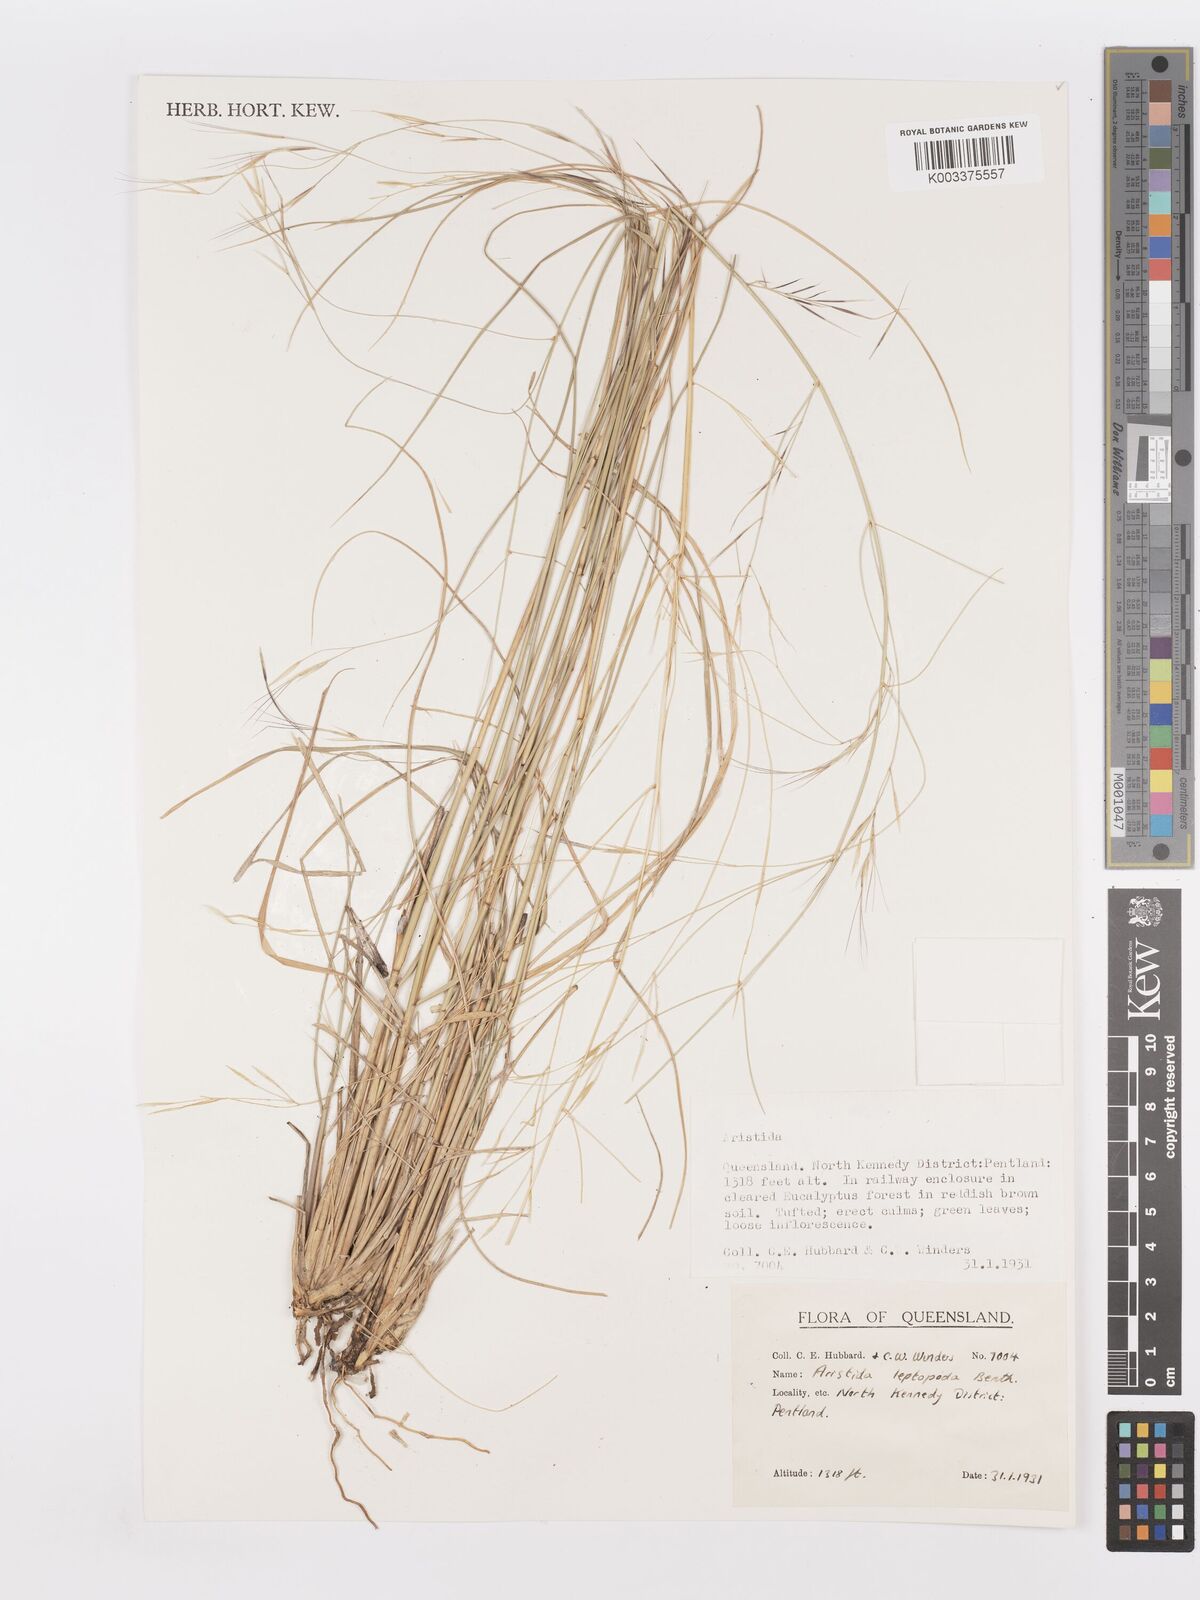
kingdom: Plantae
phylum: Tracheophyta
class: Liliopsida
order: Poales
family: Poaceae
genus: Aristida
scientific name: Aristida leptopoda
